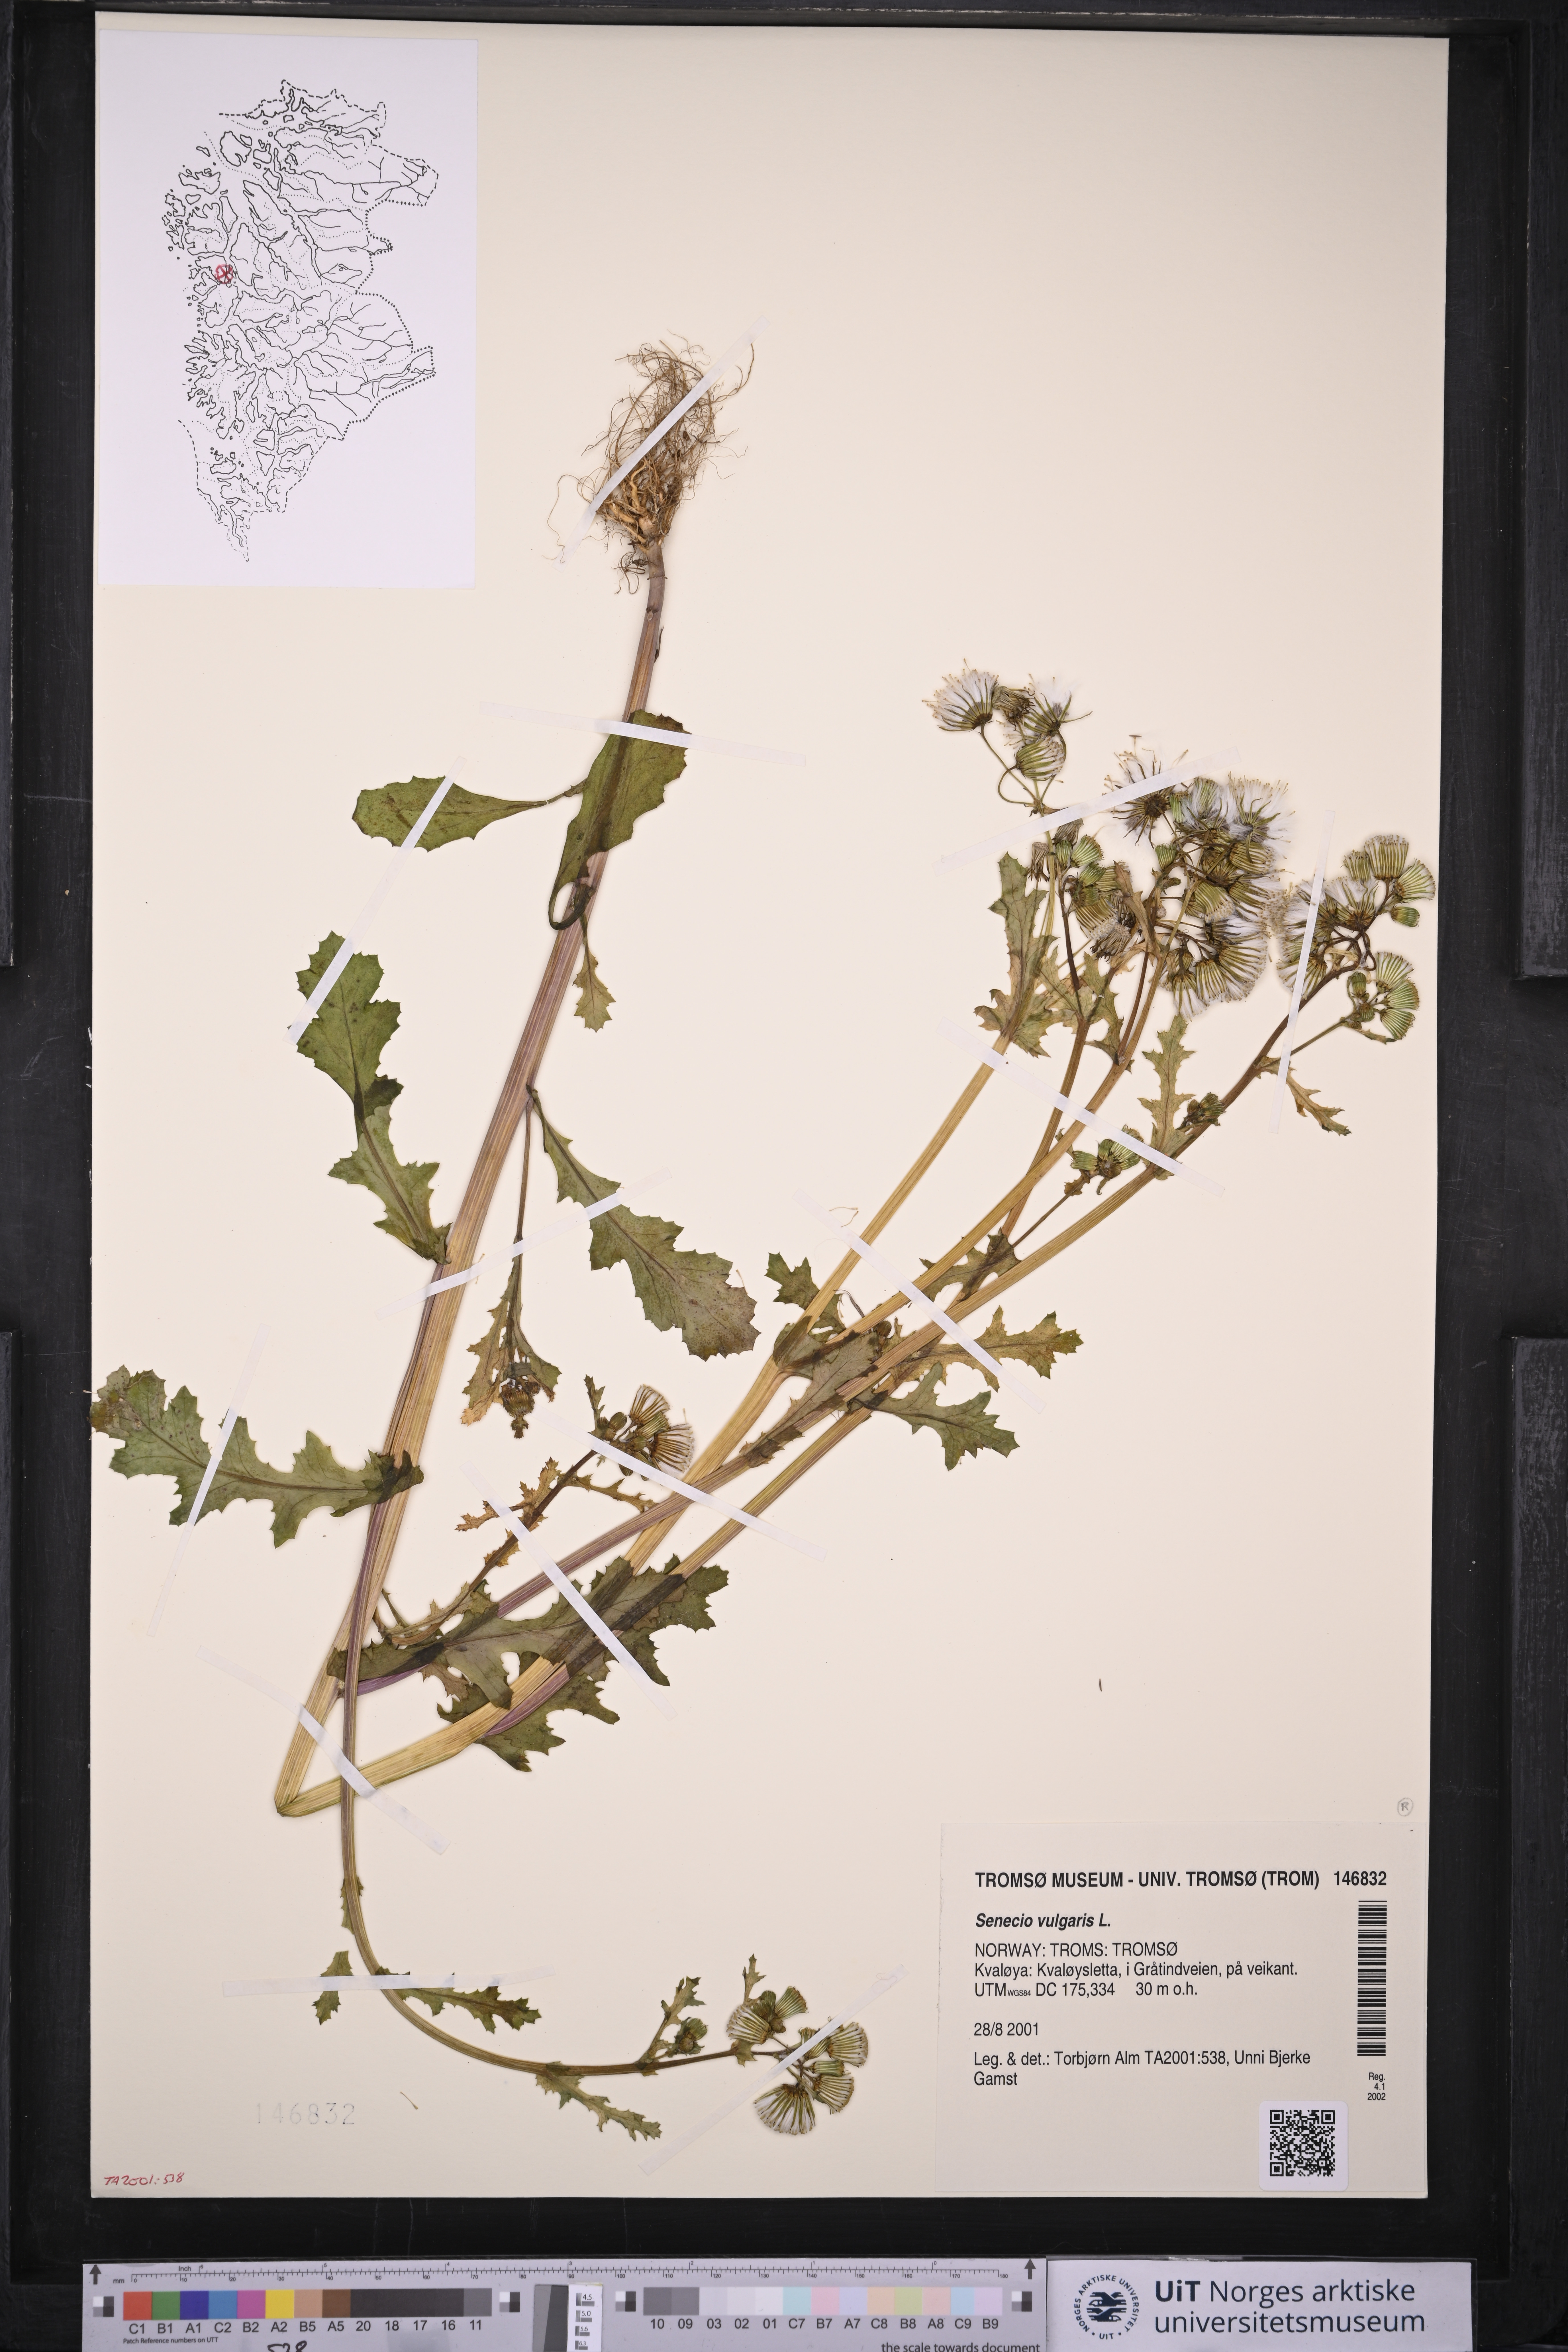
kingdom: Plantae
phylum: Tracheophyta
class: Magnoliopsida
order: Asterales
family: Asteraceae
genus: Senecio
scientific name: Senecio vulgaris
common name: Old-man-in-the-spring
